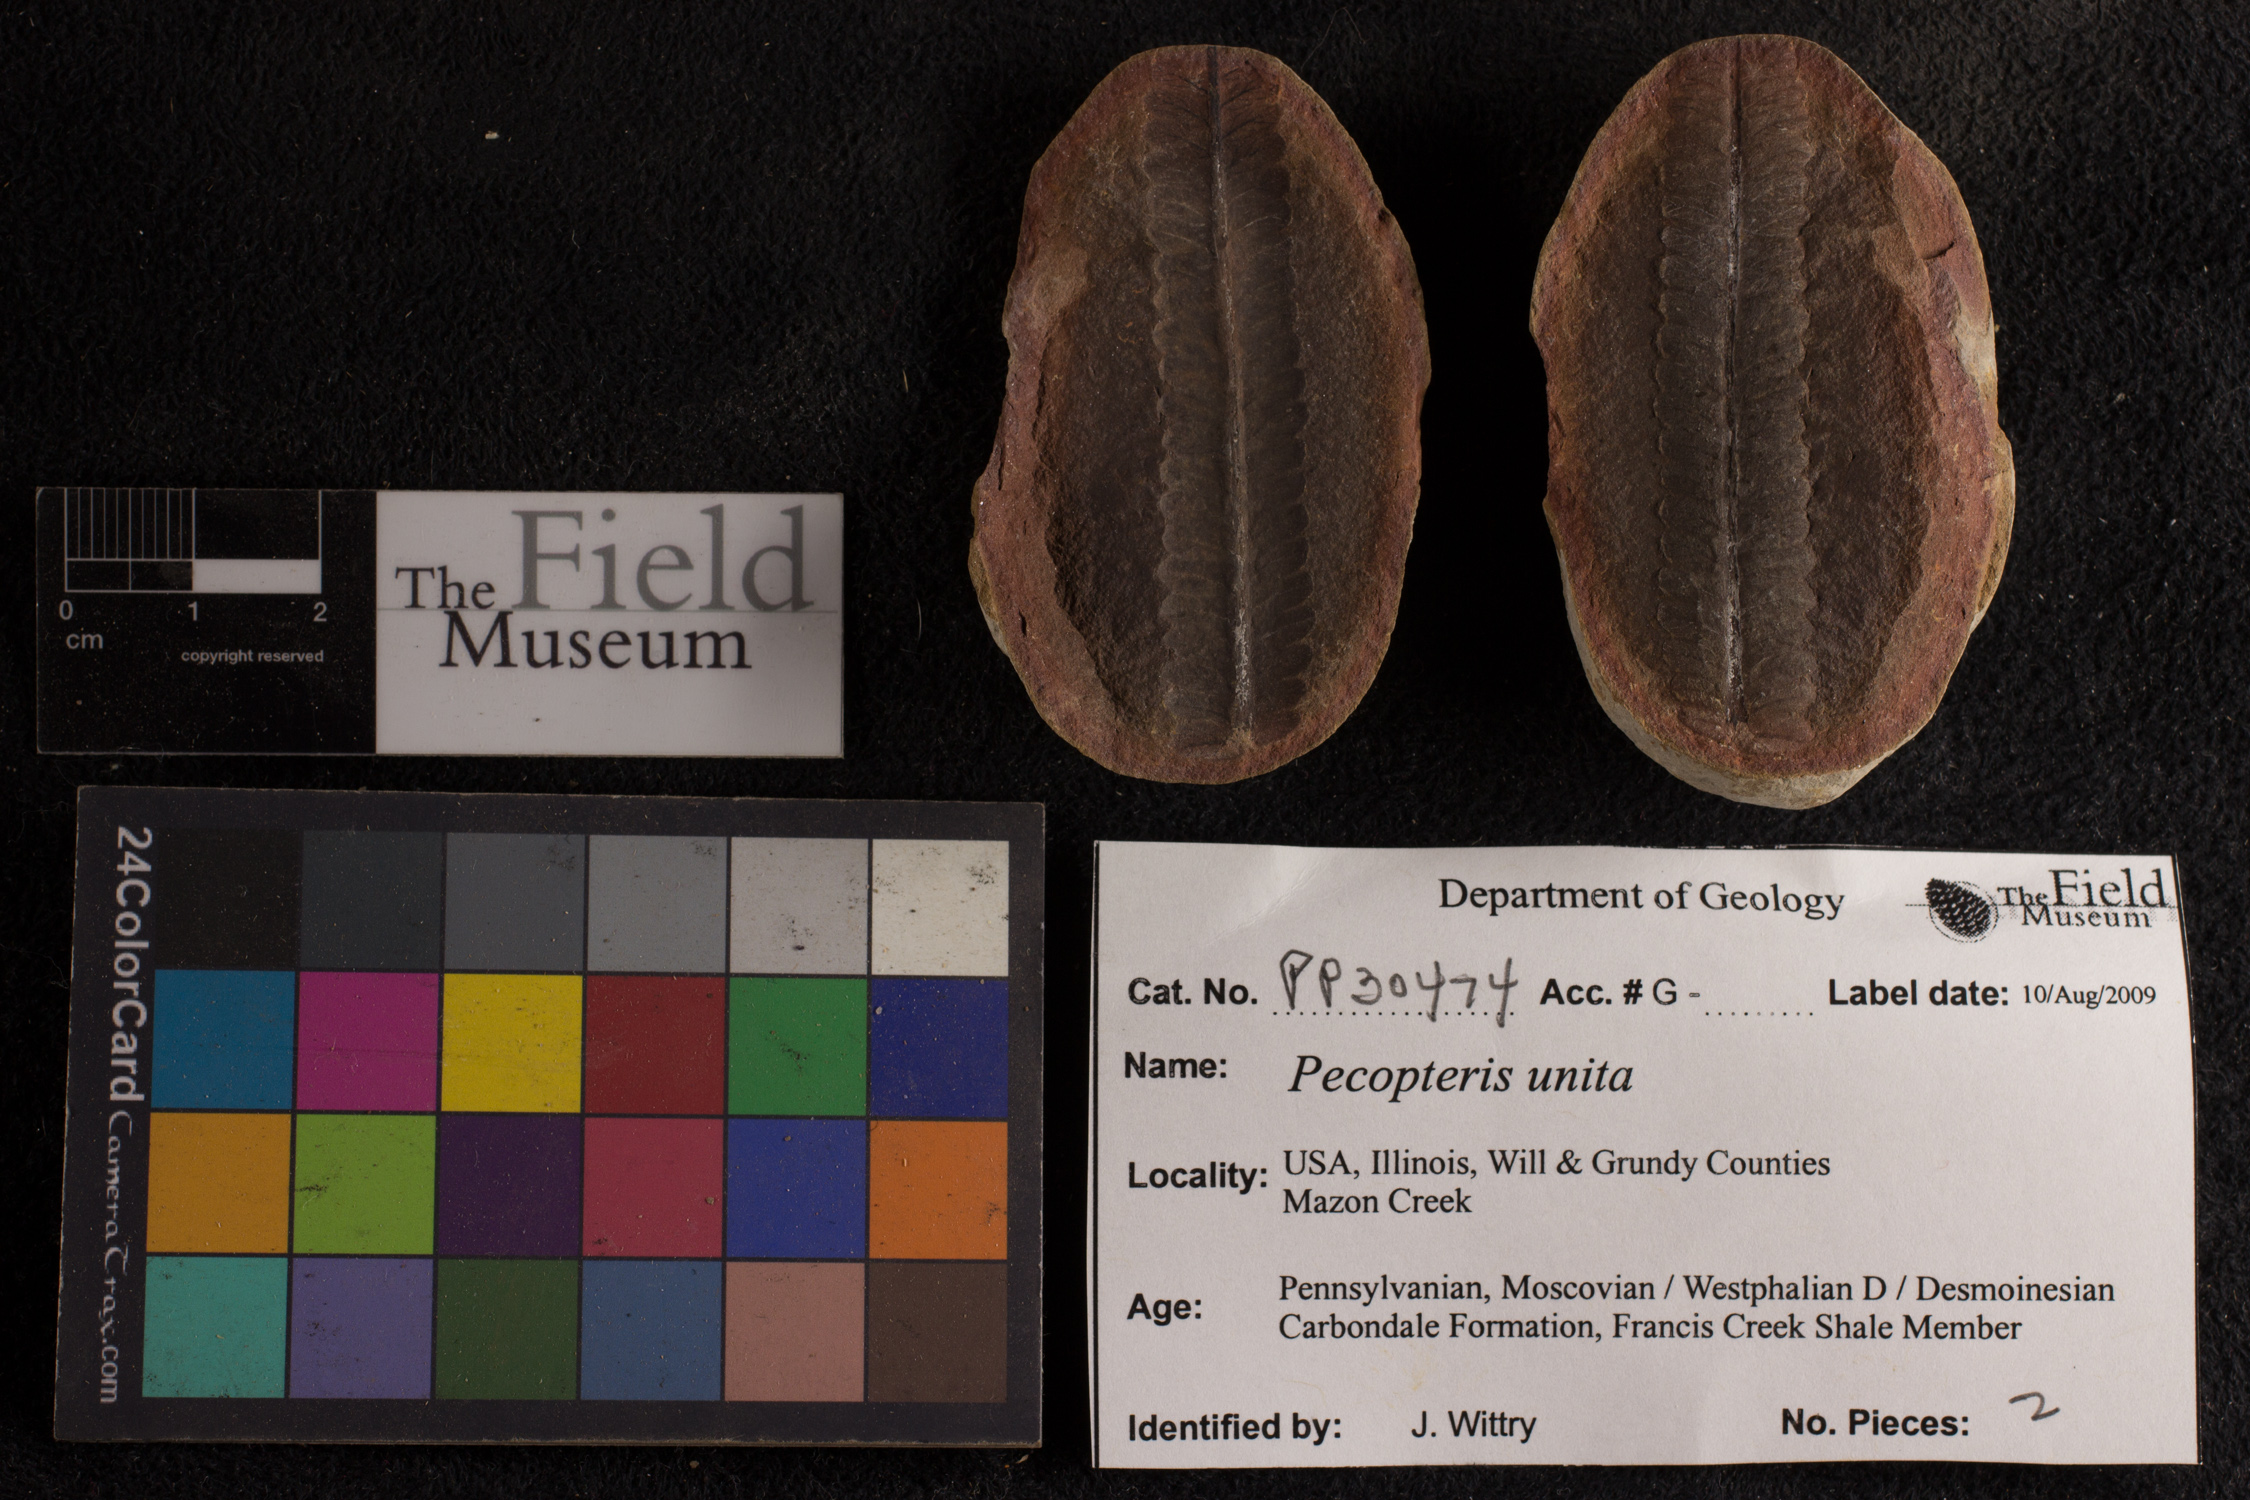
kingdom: Plantae
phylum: Tracheophyta
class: Polypodiopsida
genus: Diplazites
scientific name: Diplazites
